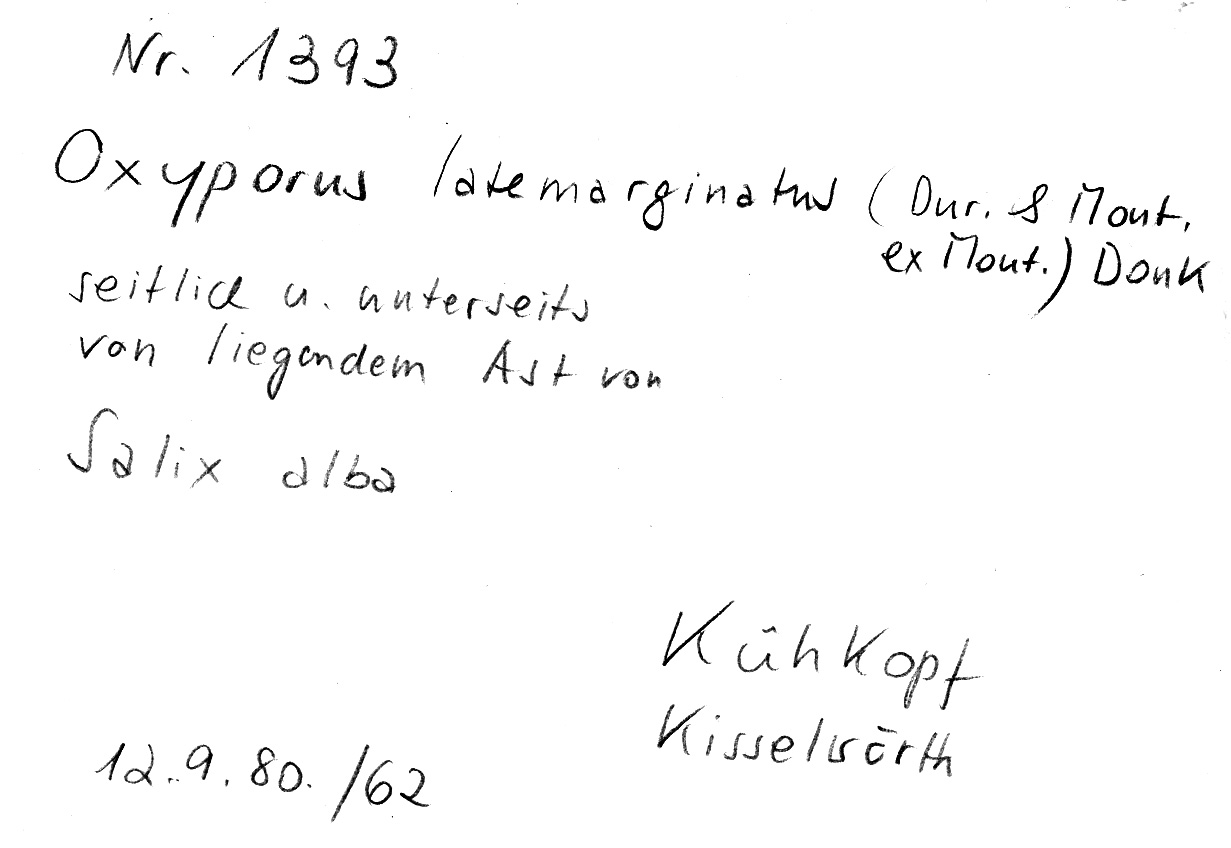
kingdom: Fungi
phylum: Basidiomycota
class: Agaricomycetes
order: Polyporales
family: Irpicaceae
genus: Irpex
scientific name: Irpex latemarginatus
